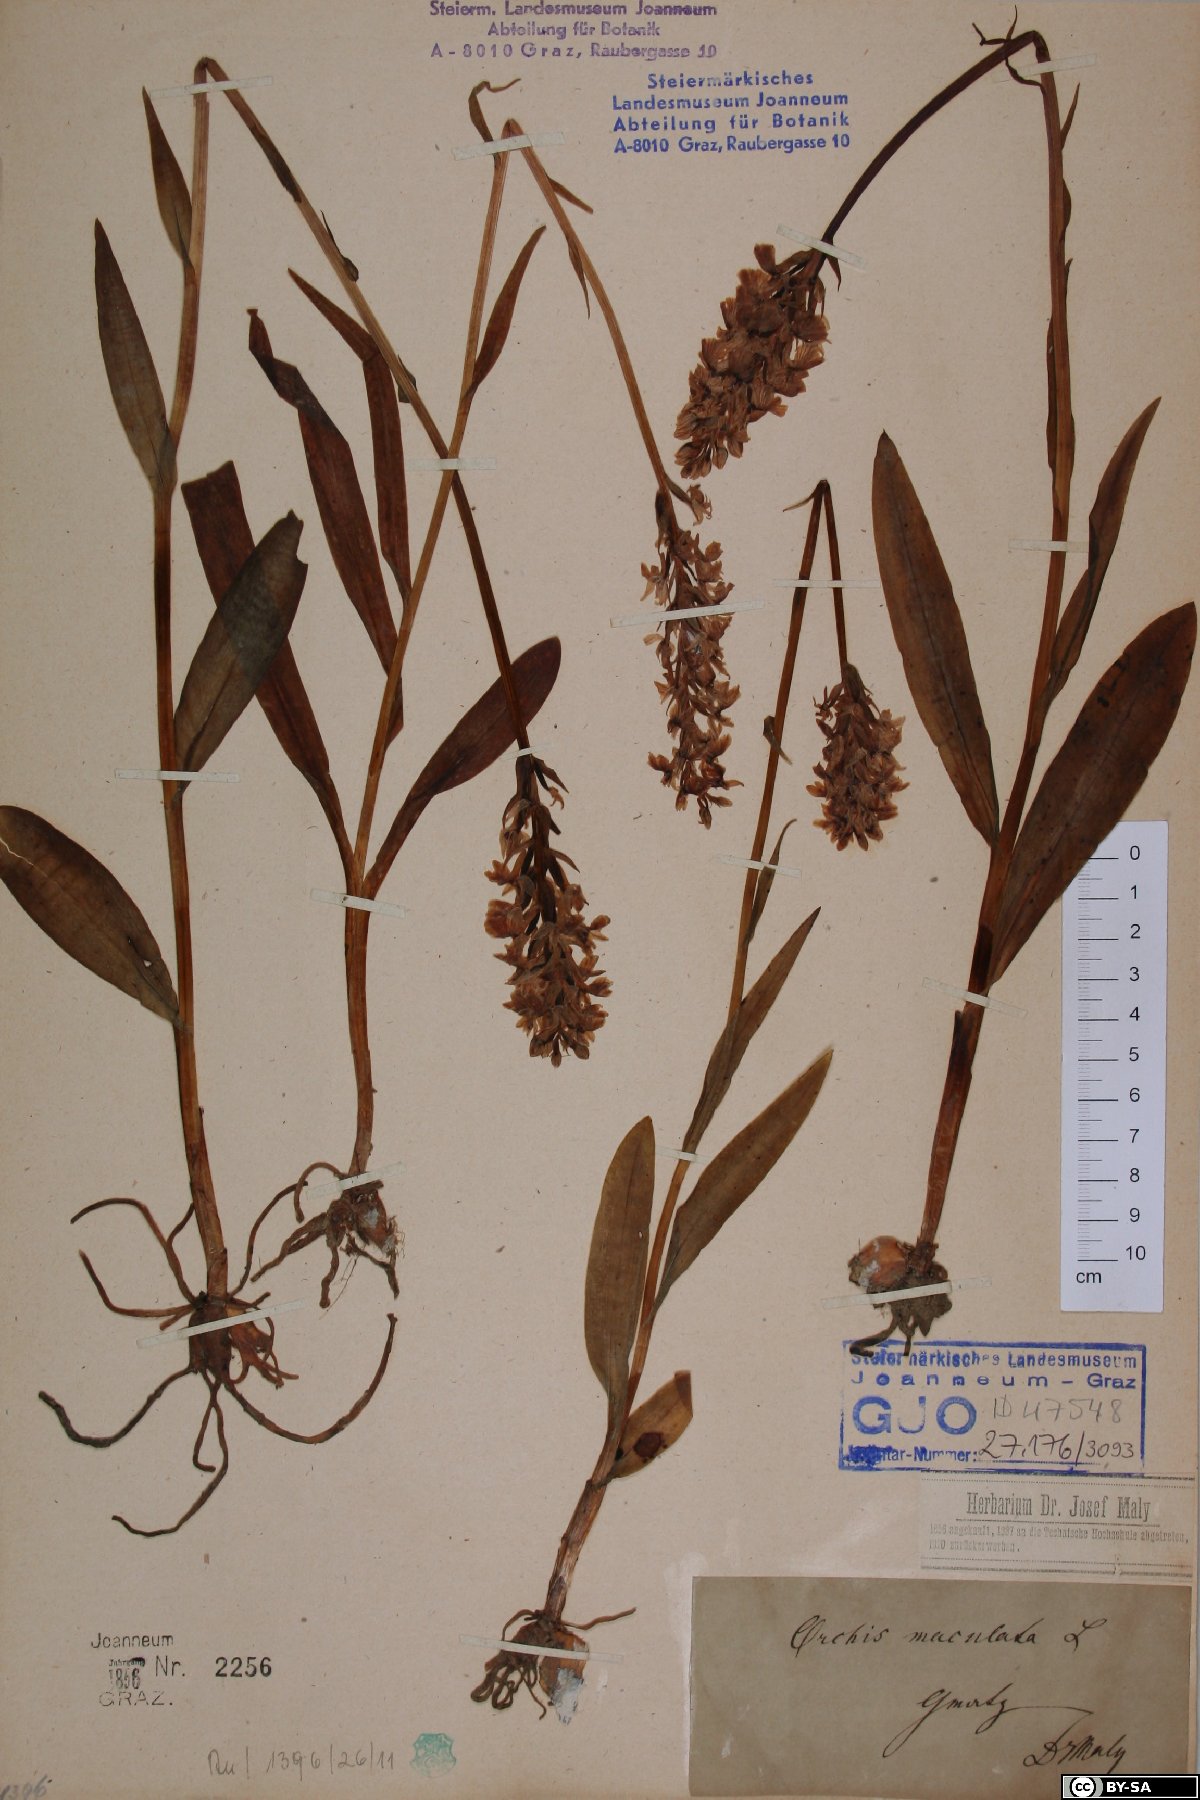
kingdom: Plantae
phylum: Tracheophyta
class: Liliopsida
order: Asparagales
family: Orchidaceae
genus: Dactylorhiza
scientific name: Dactylorhiza maculata
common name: Heath spotted-orchid
